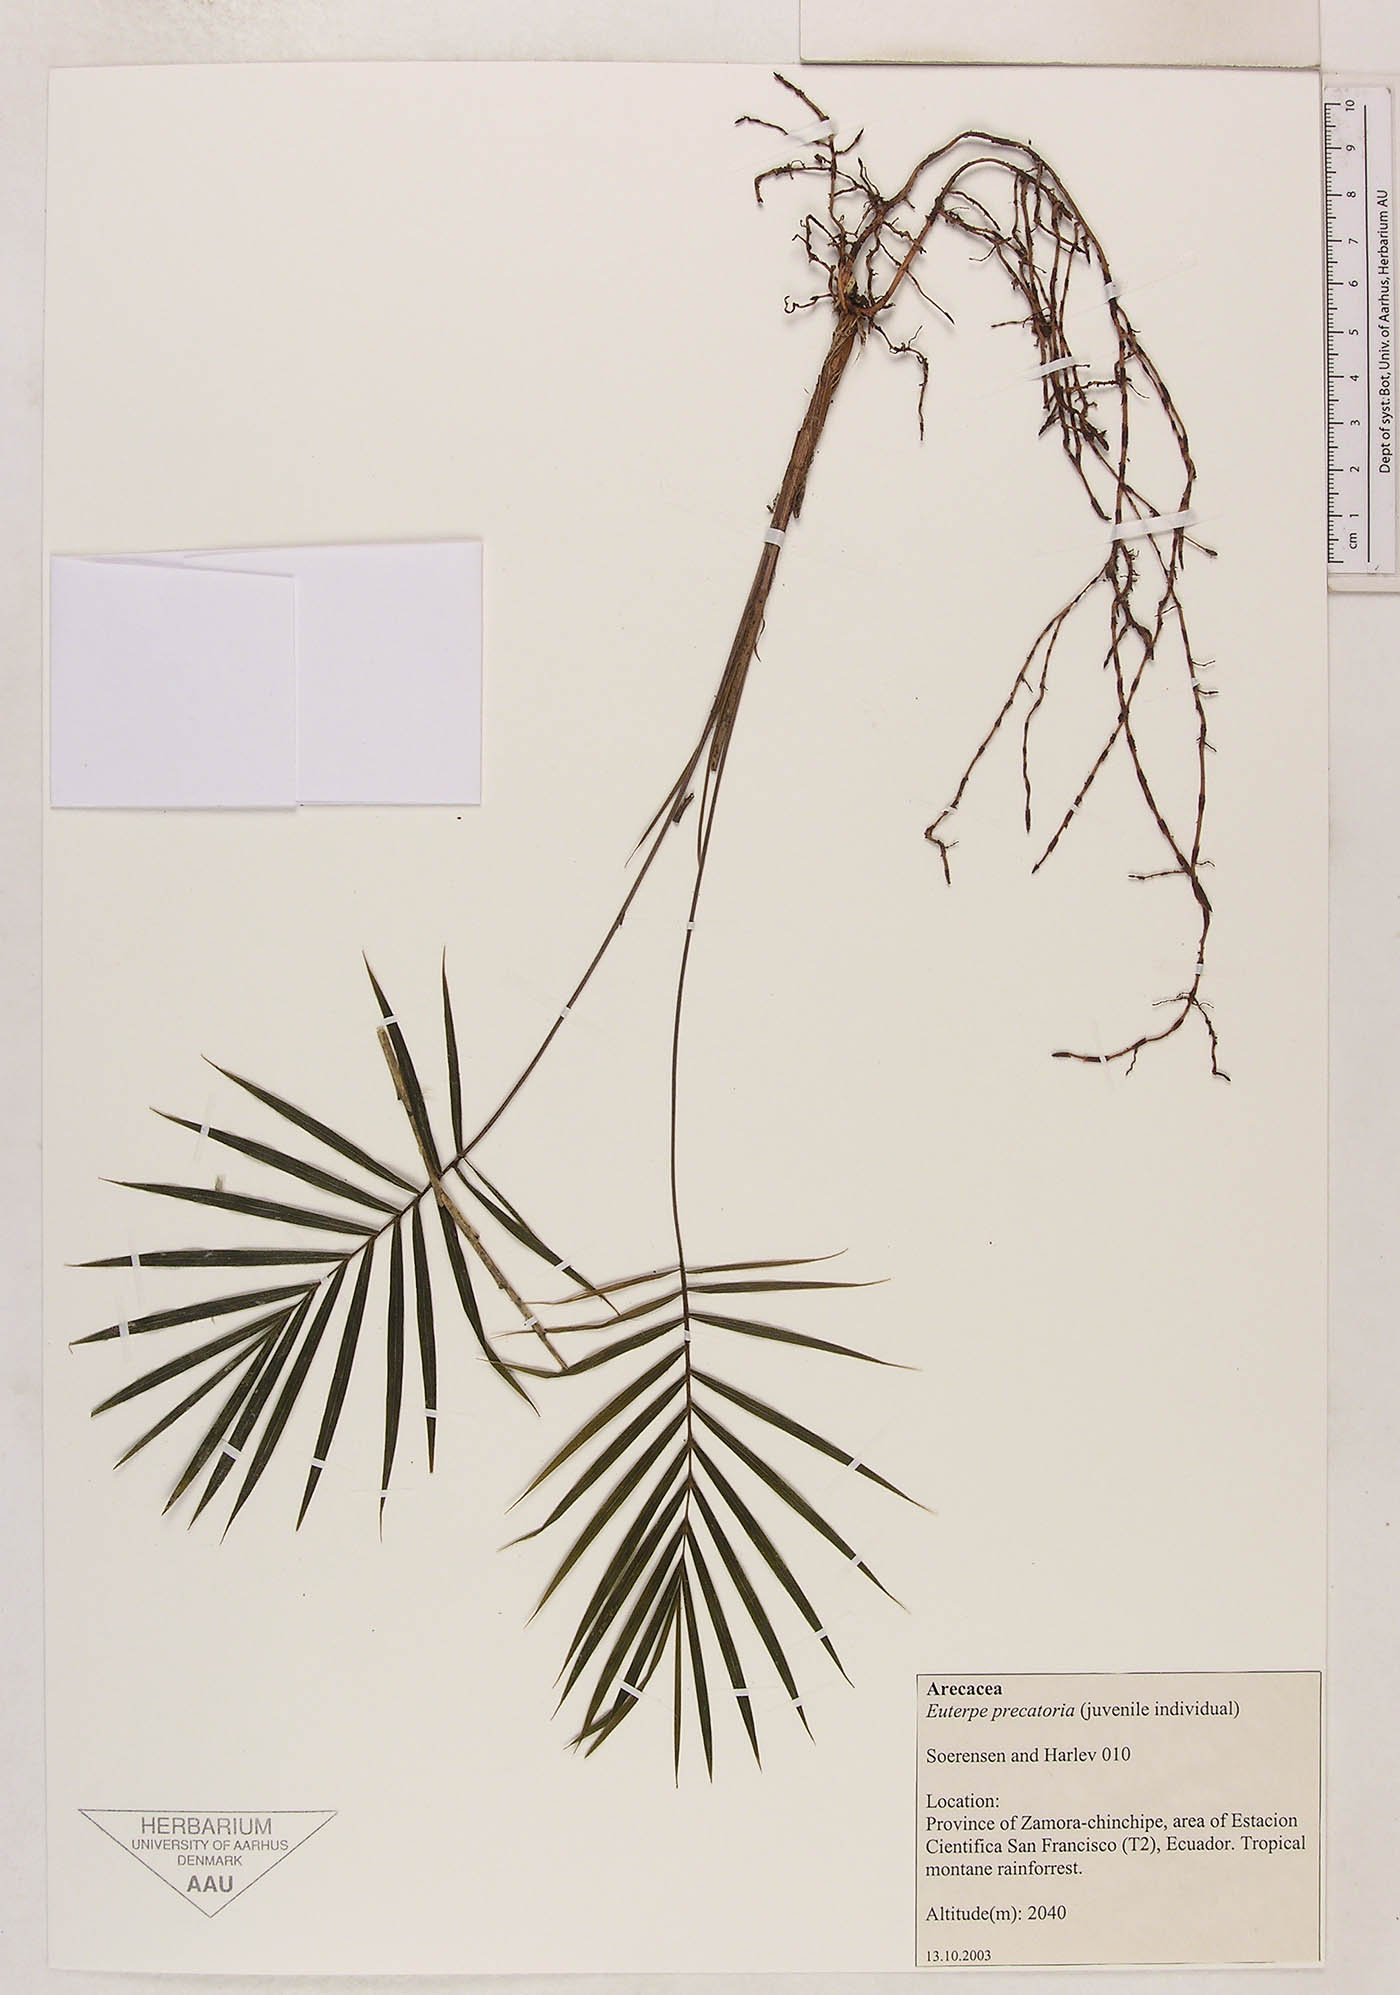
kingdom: Plantae
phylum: Tracheophyta
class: Liliopsida
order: Arecales
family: Arecaceae
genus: Euterpe
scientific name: Euterpe precatoria
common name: Mountain-cabbage
